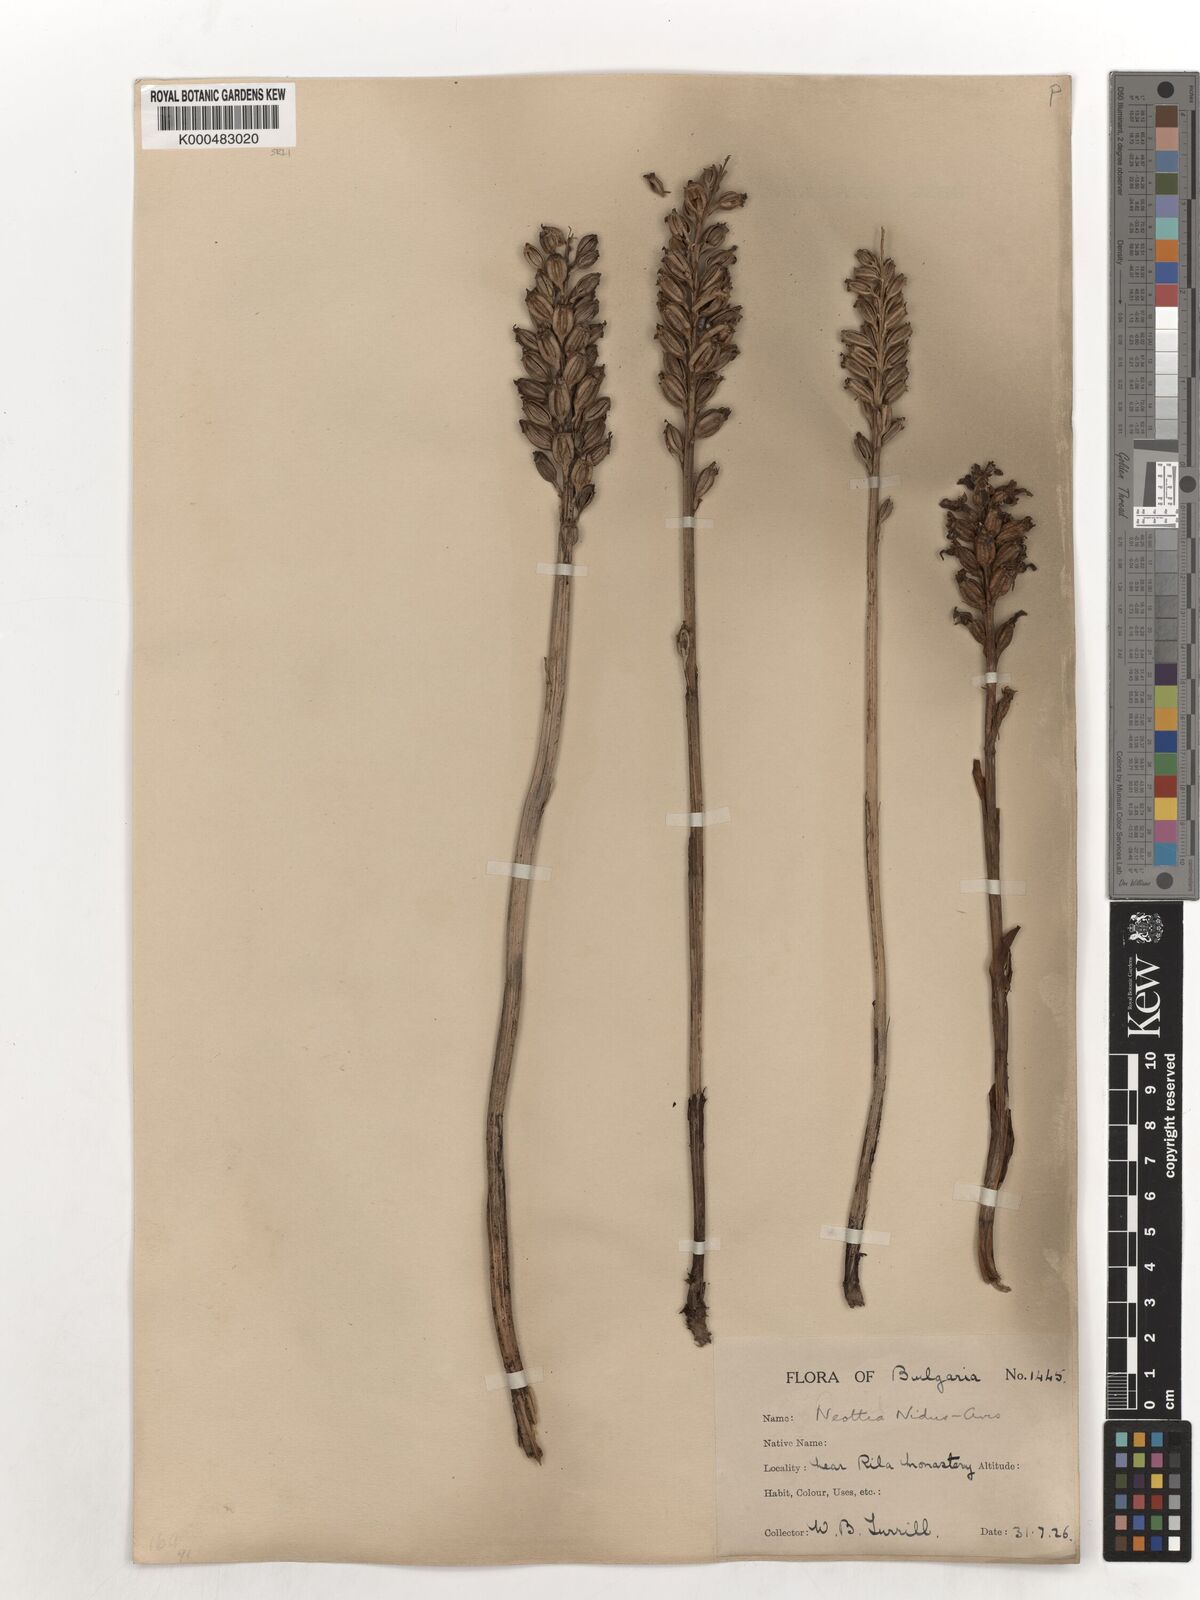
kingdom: Plantae
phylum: Tracheophyta
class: Liliopsida
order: Asparagales
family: Orchidaceae
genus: Neottia
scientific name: Neottia nidus-avis
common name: Bird's-nest orchid
